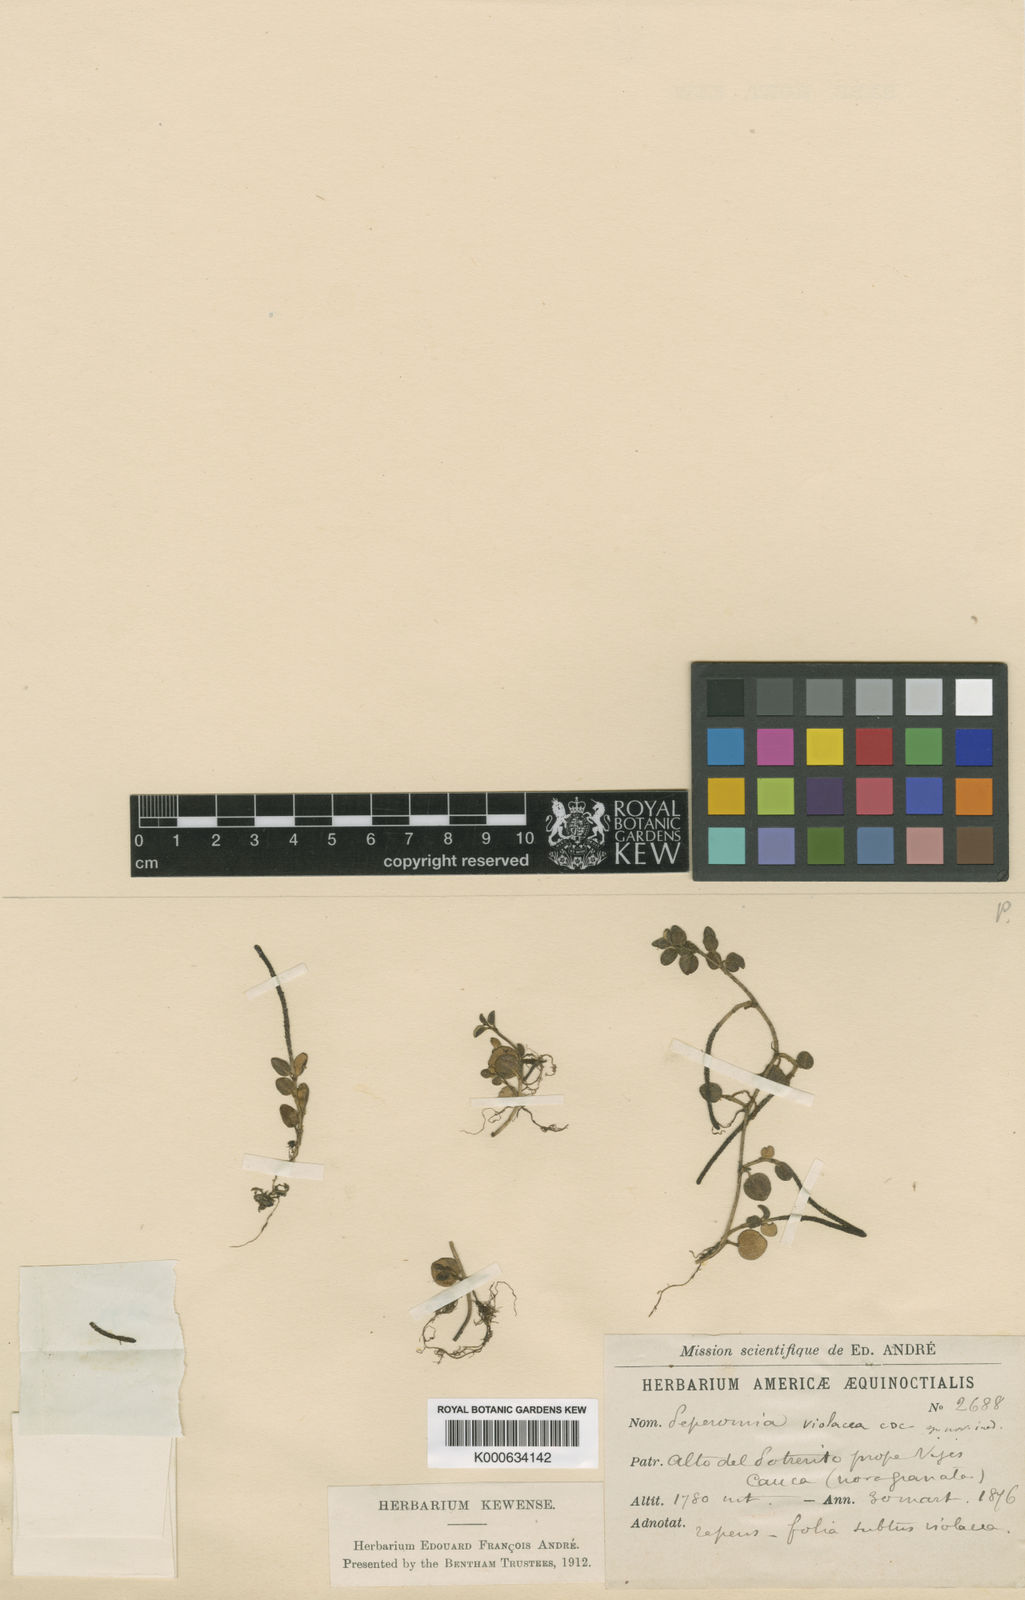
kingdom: Plantae
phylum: Tracheophyta
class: Magnoliopsida
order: Piperales
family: Piperaceae
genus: Peperomia
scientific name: Peperomia violacea
